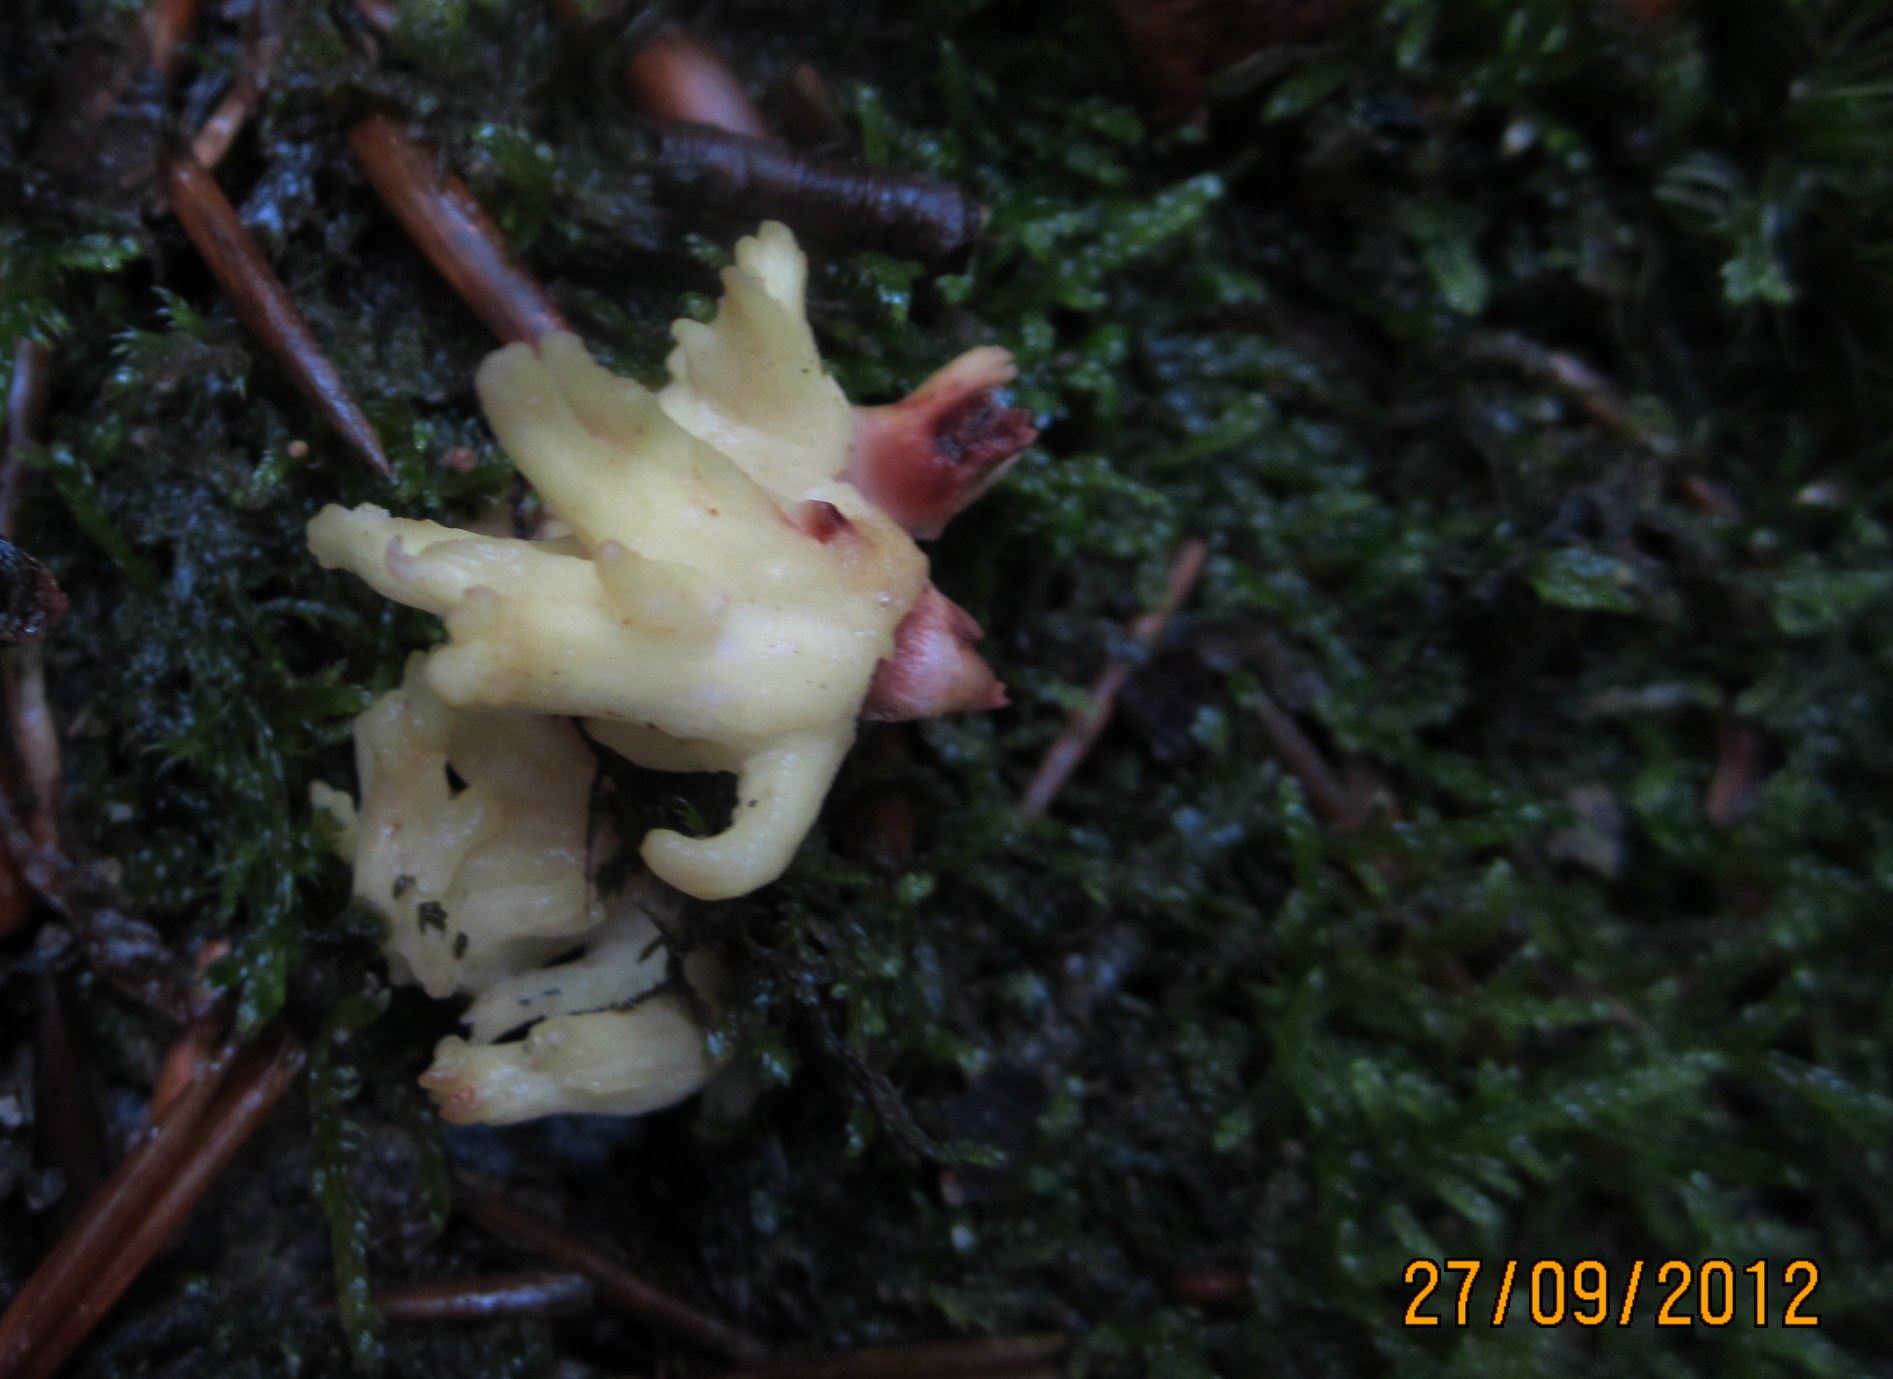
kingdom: Fungi
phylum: Basidiomycota
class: Agaricomycetes
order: Gomphales
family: Gomphaceae
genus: Ramaria
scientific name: Ramaria sanguinea
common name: blodplettet koralsvamp
